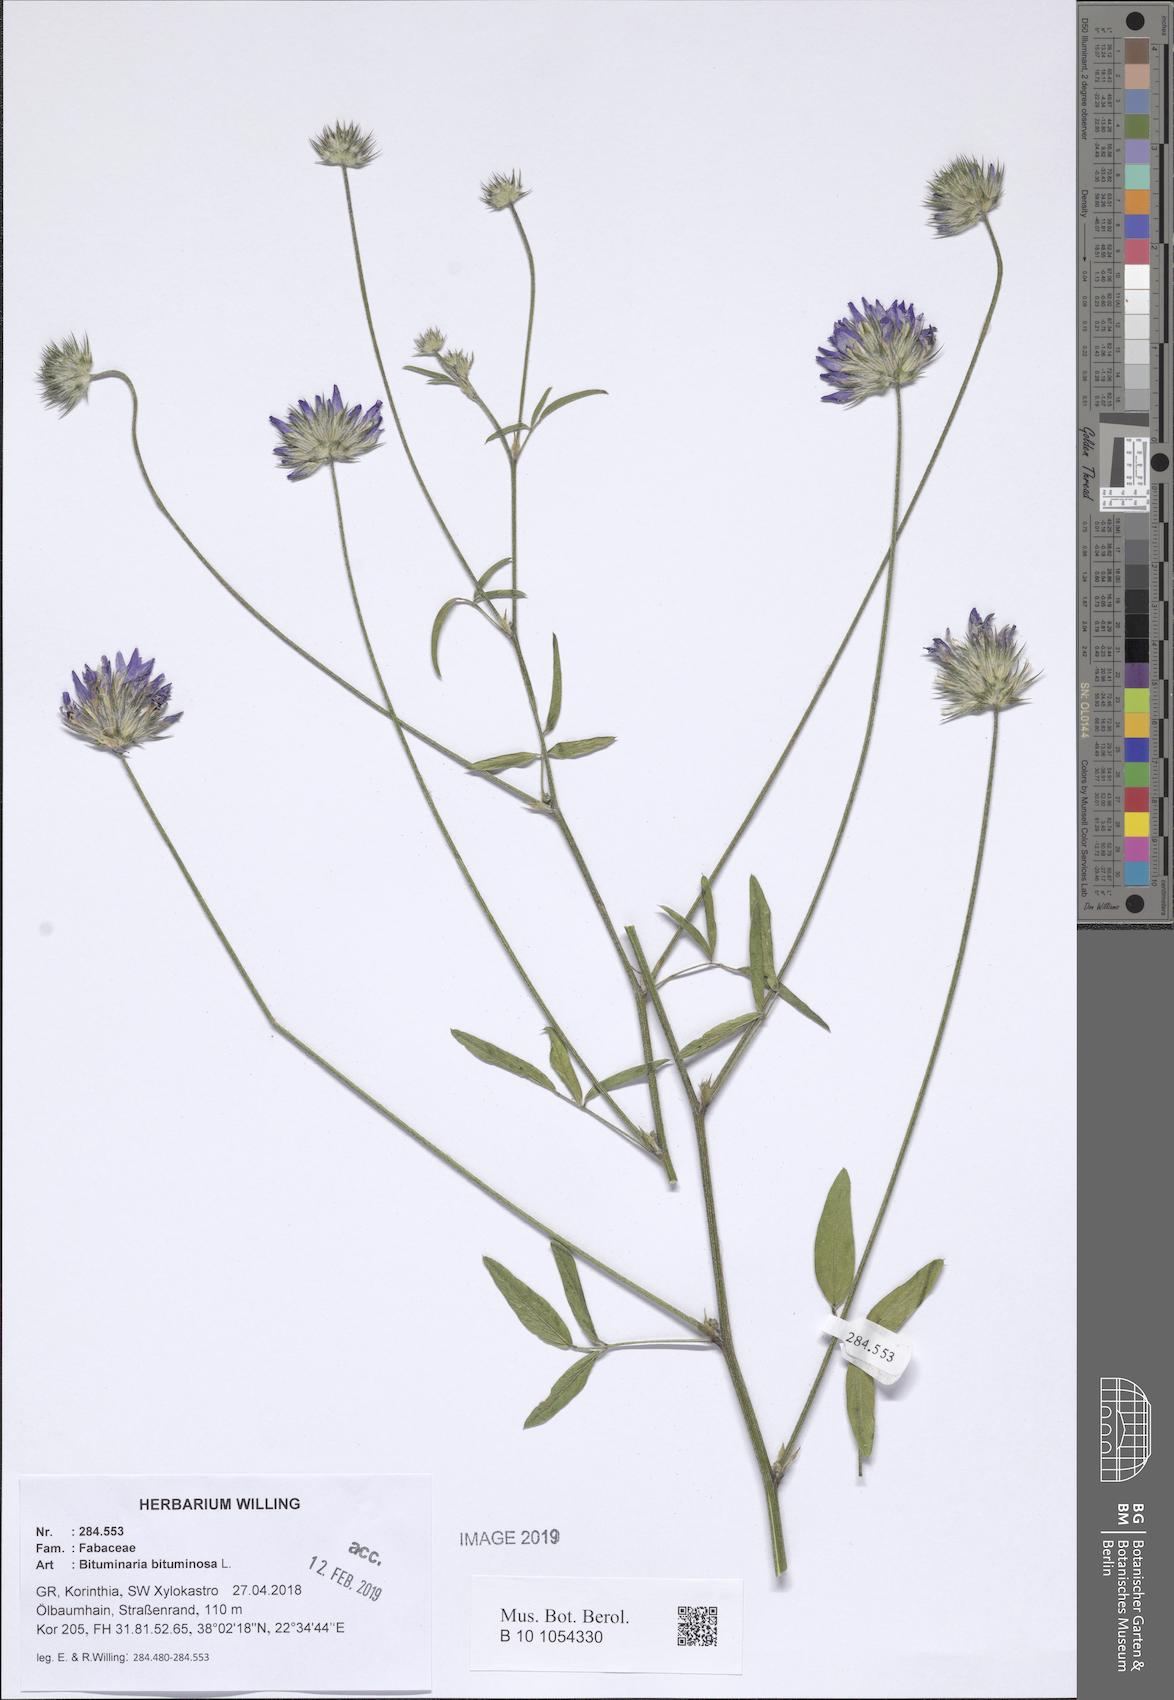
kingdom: Plantae
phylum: Tracheophyta
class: Magnoliopsida
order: Fabales
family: Fabaceae
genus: Bituminaria
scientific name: Bituminaria bituminosa
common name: Arabian pea
